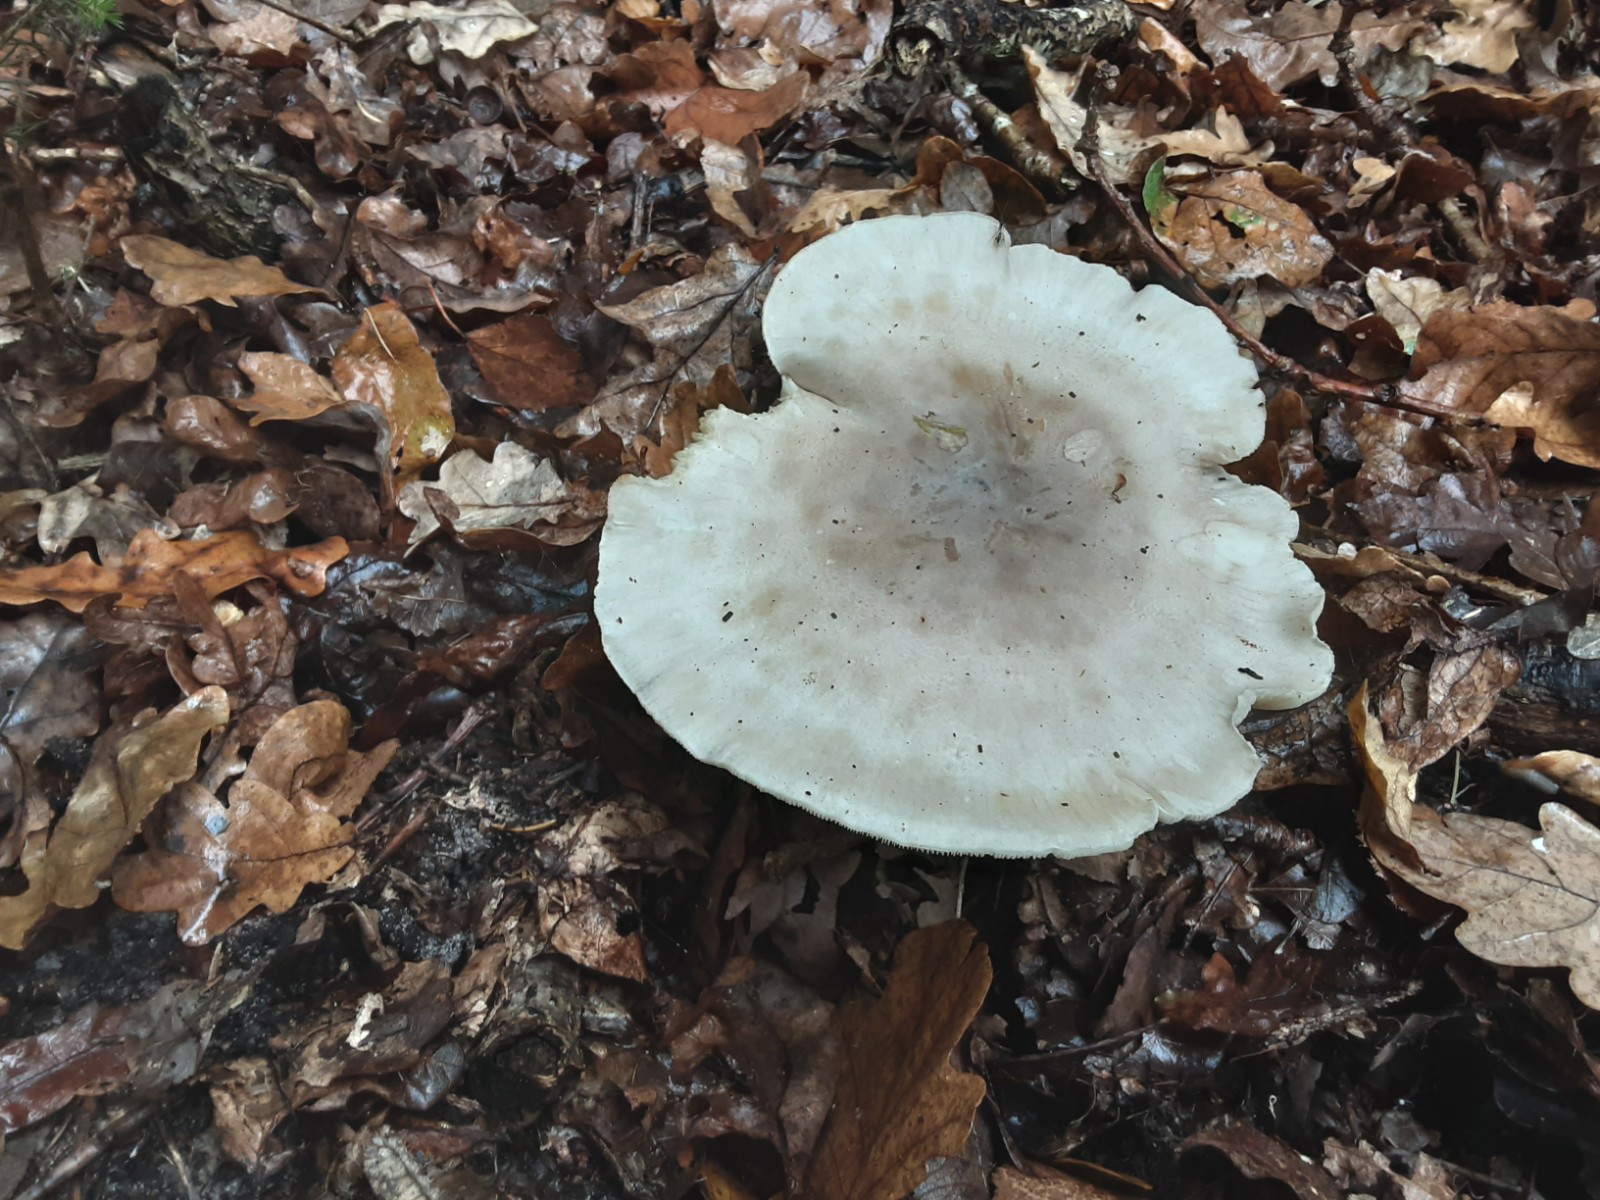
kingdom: Fungi
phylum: Basidiomycota
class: Agaricomycetes
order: Agaricales
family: Tricholomataceae
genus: Clitocybe
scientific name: Clitocybe nebularis
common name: tåge-tragthat
